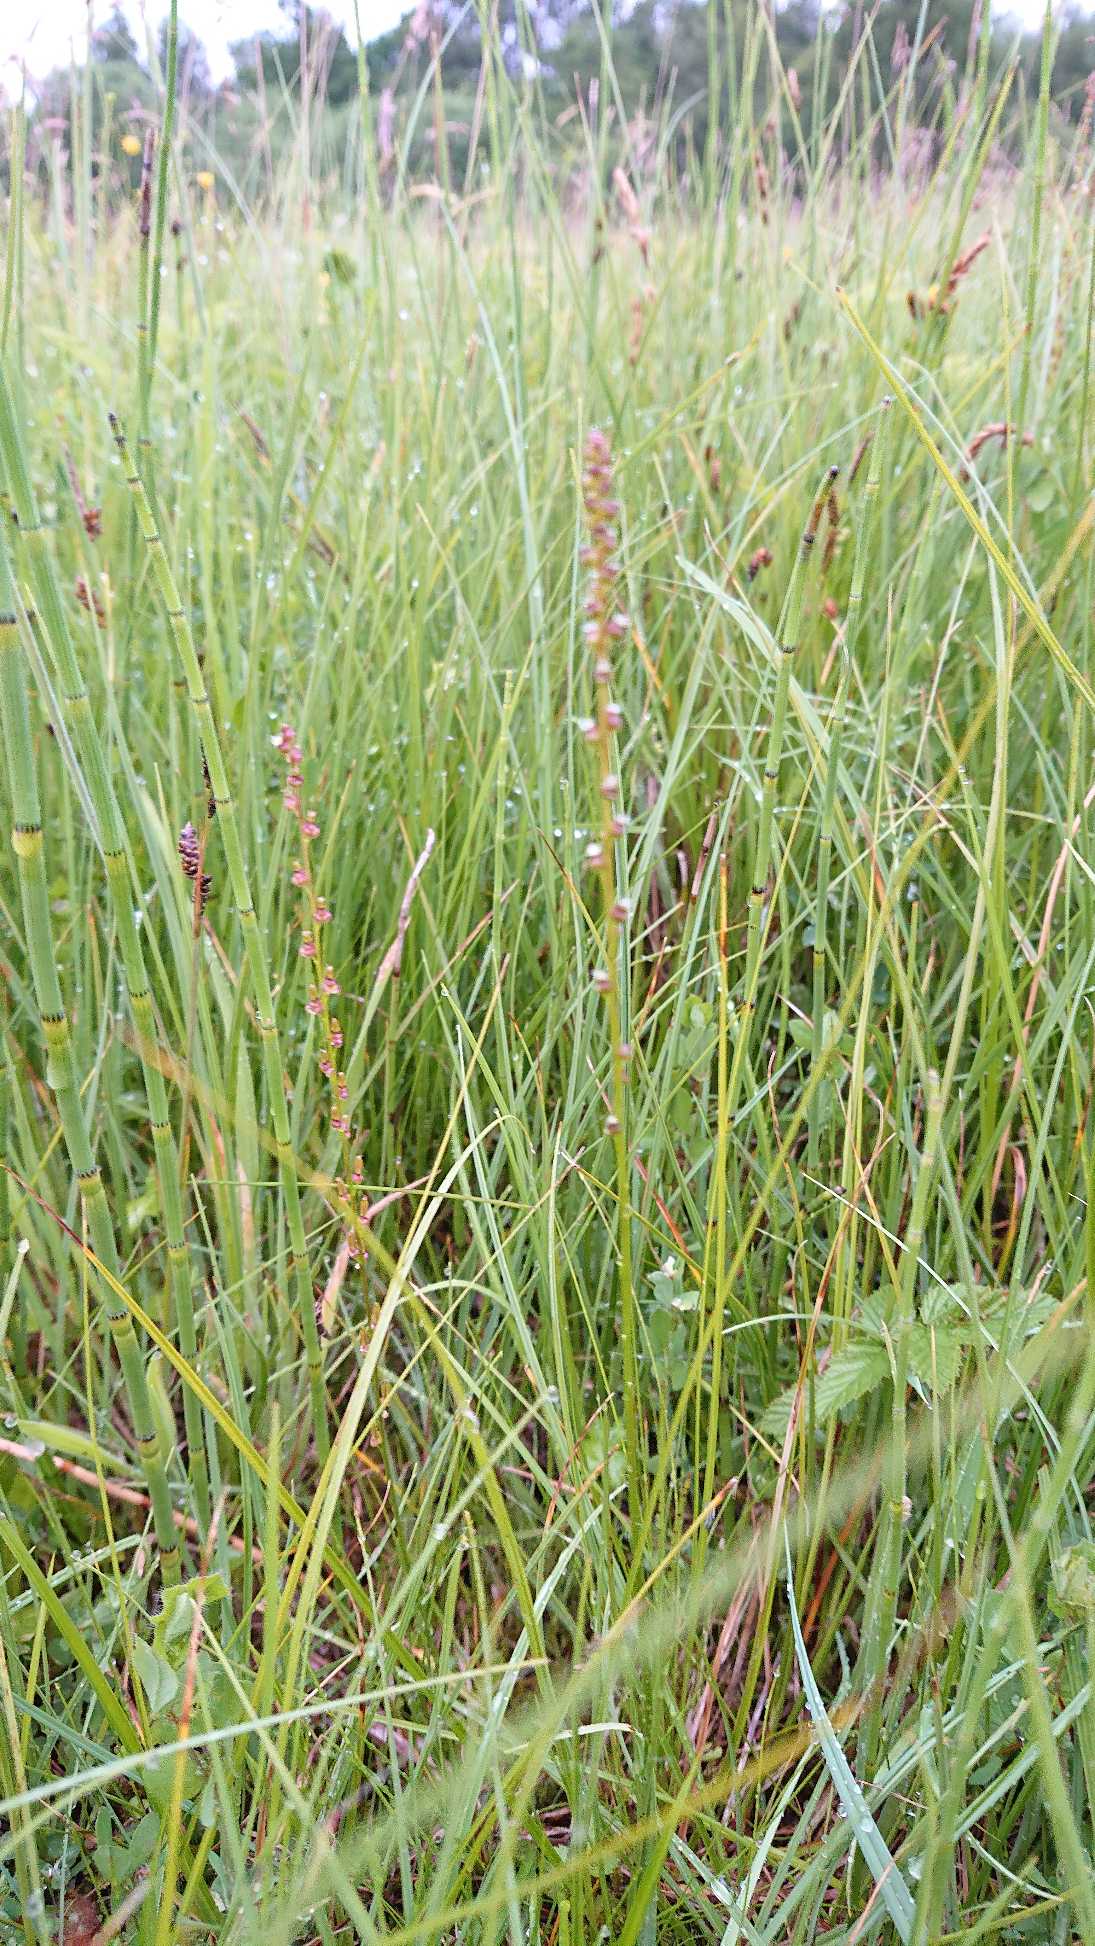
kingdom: Plantae
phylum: Tracheophyta
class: Liliopsida
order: Alismatales
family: Juncaginaceae
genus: Triglochin
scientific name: Triglochin palustris
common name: Kær-trehage
